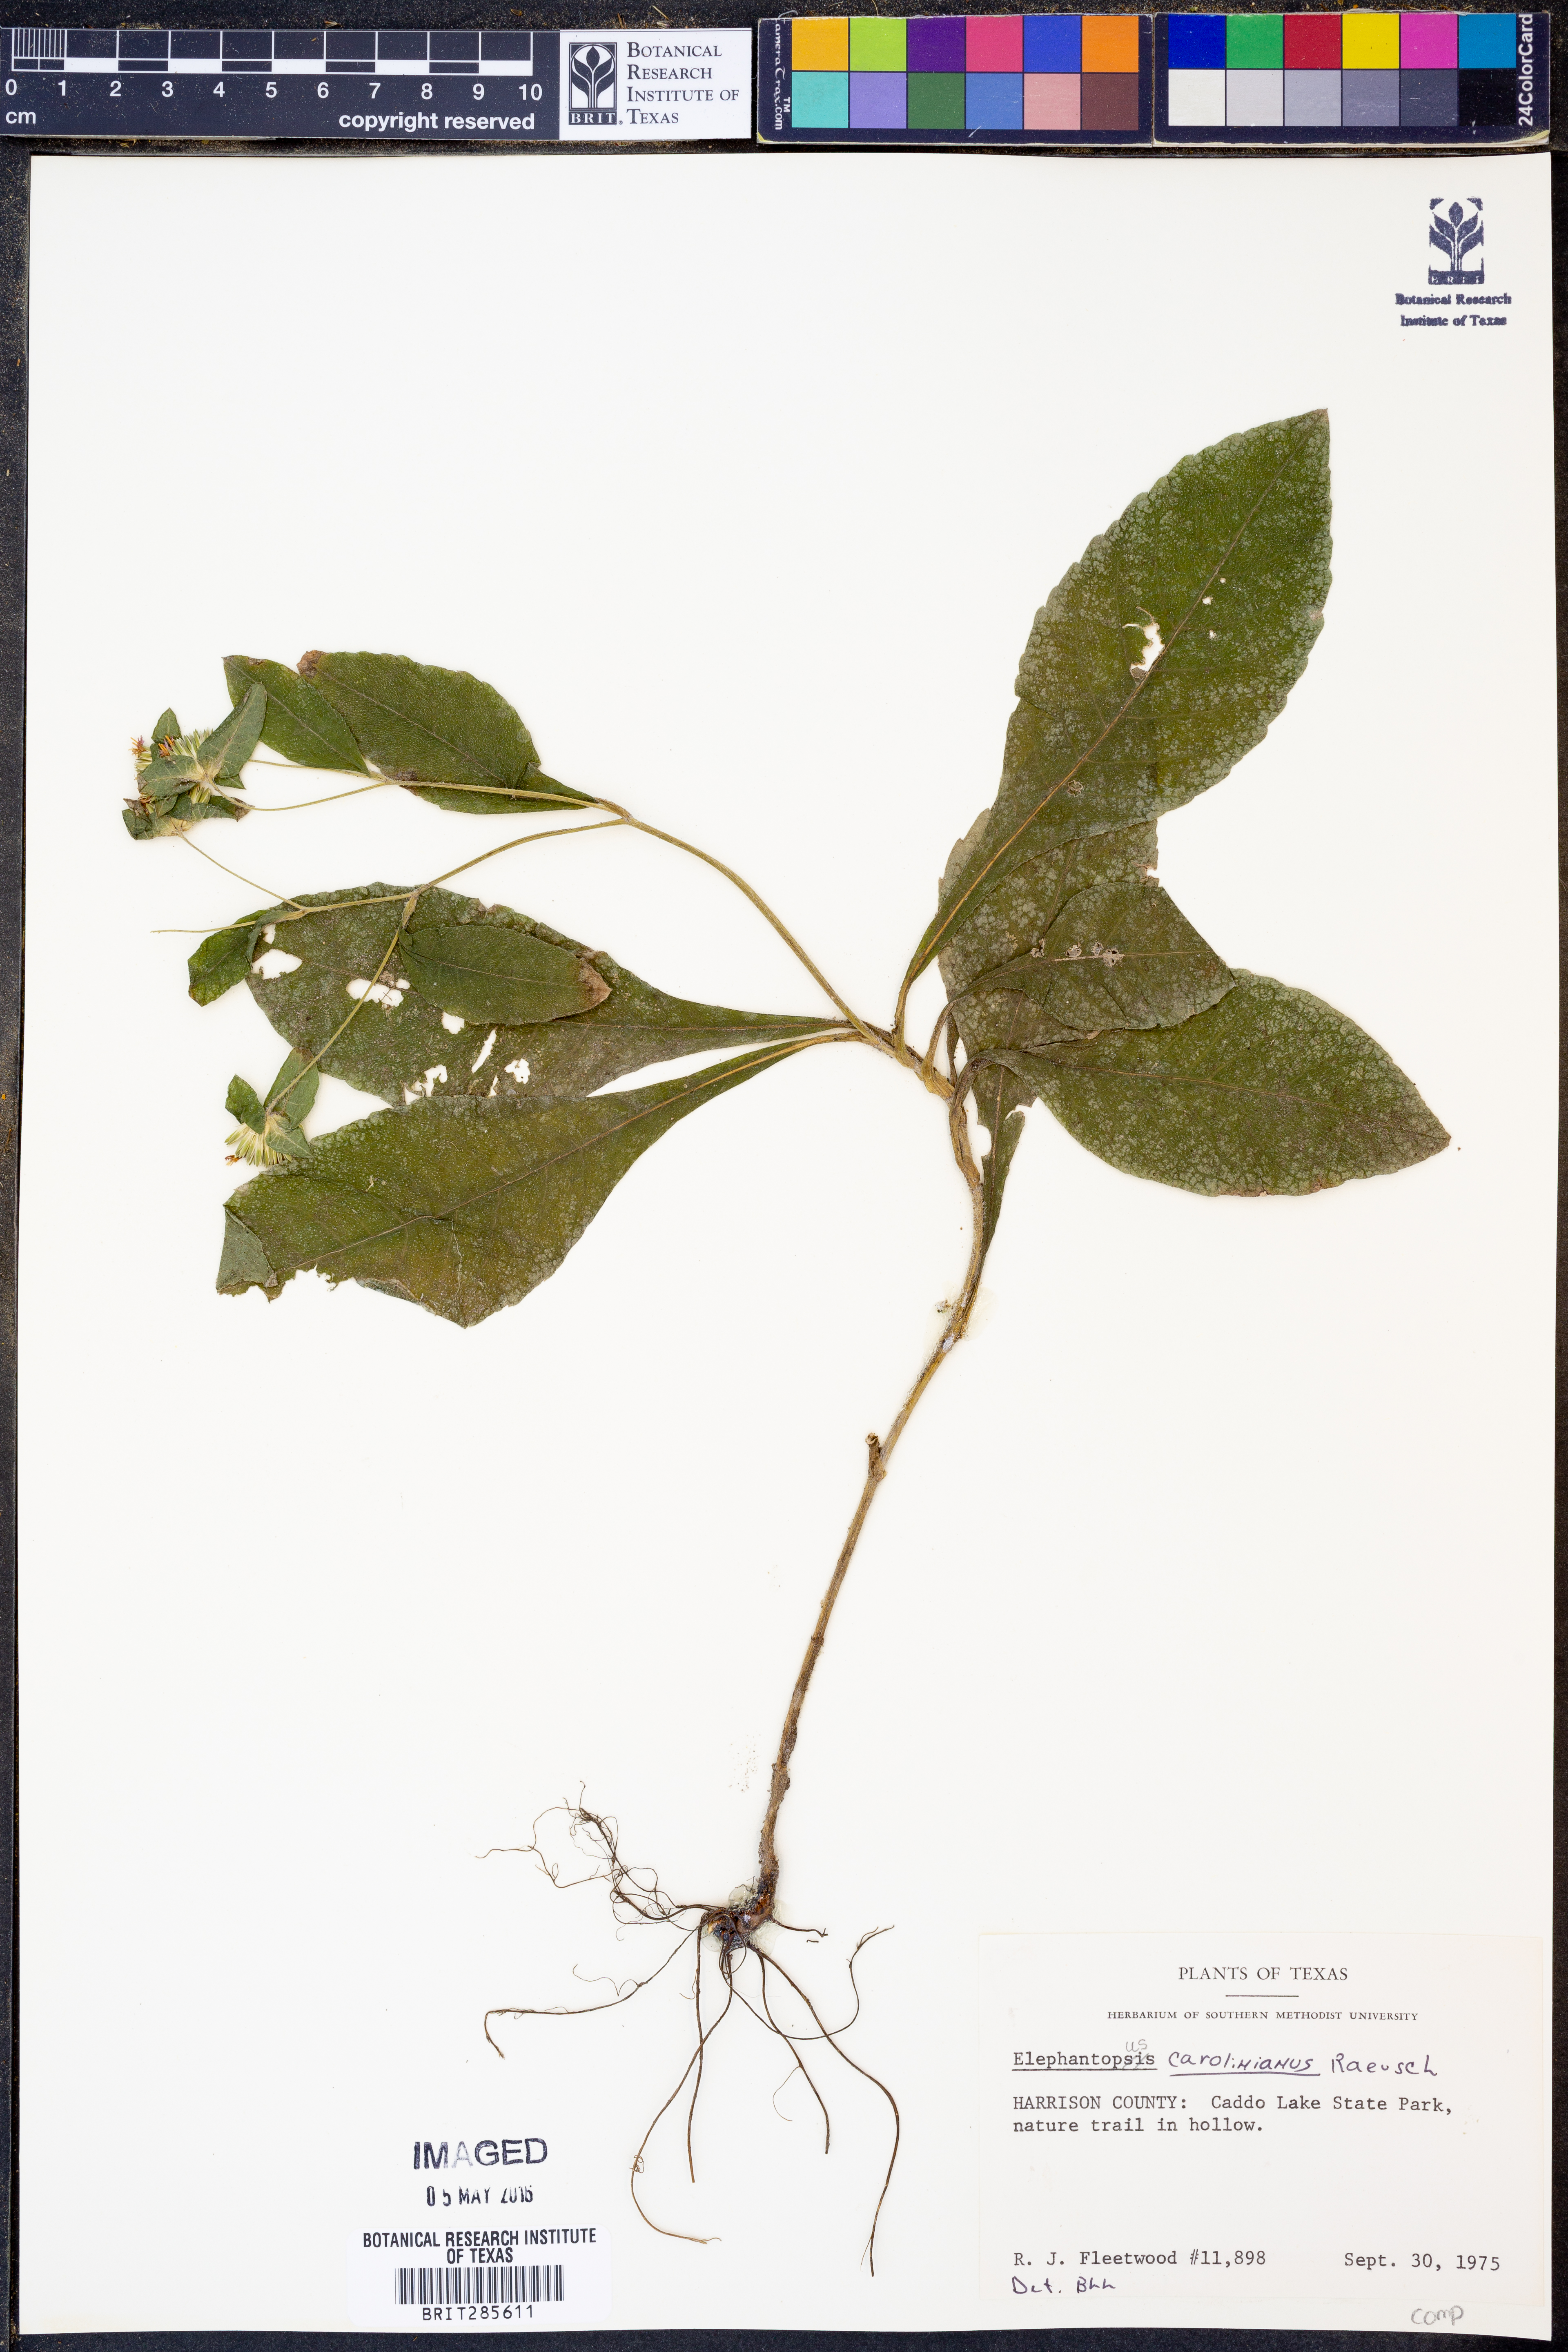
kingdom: Plantae
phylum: Tracheophyta
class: Magnoliopsida
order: Asterales
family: Asteraceae
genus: Elephantopus
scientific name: Elephantopus carolinianus
